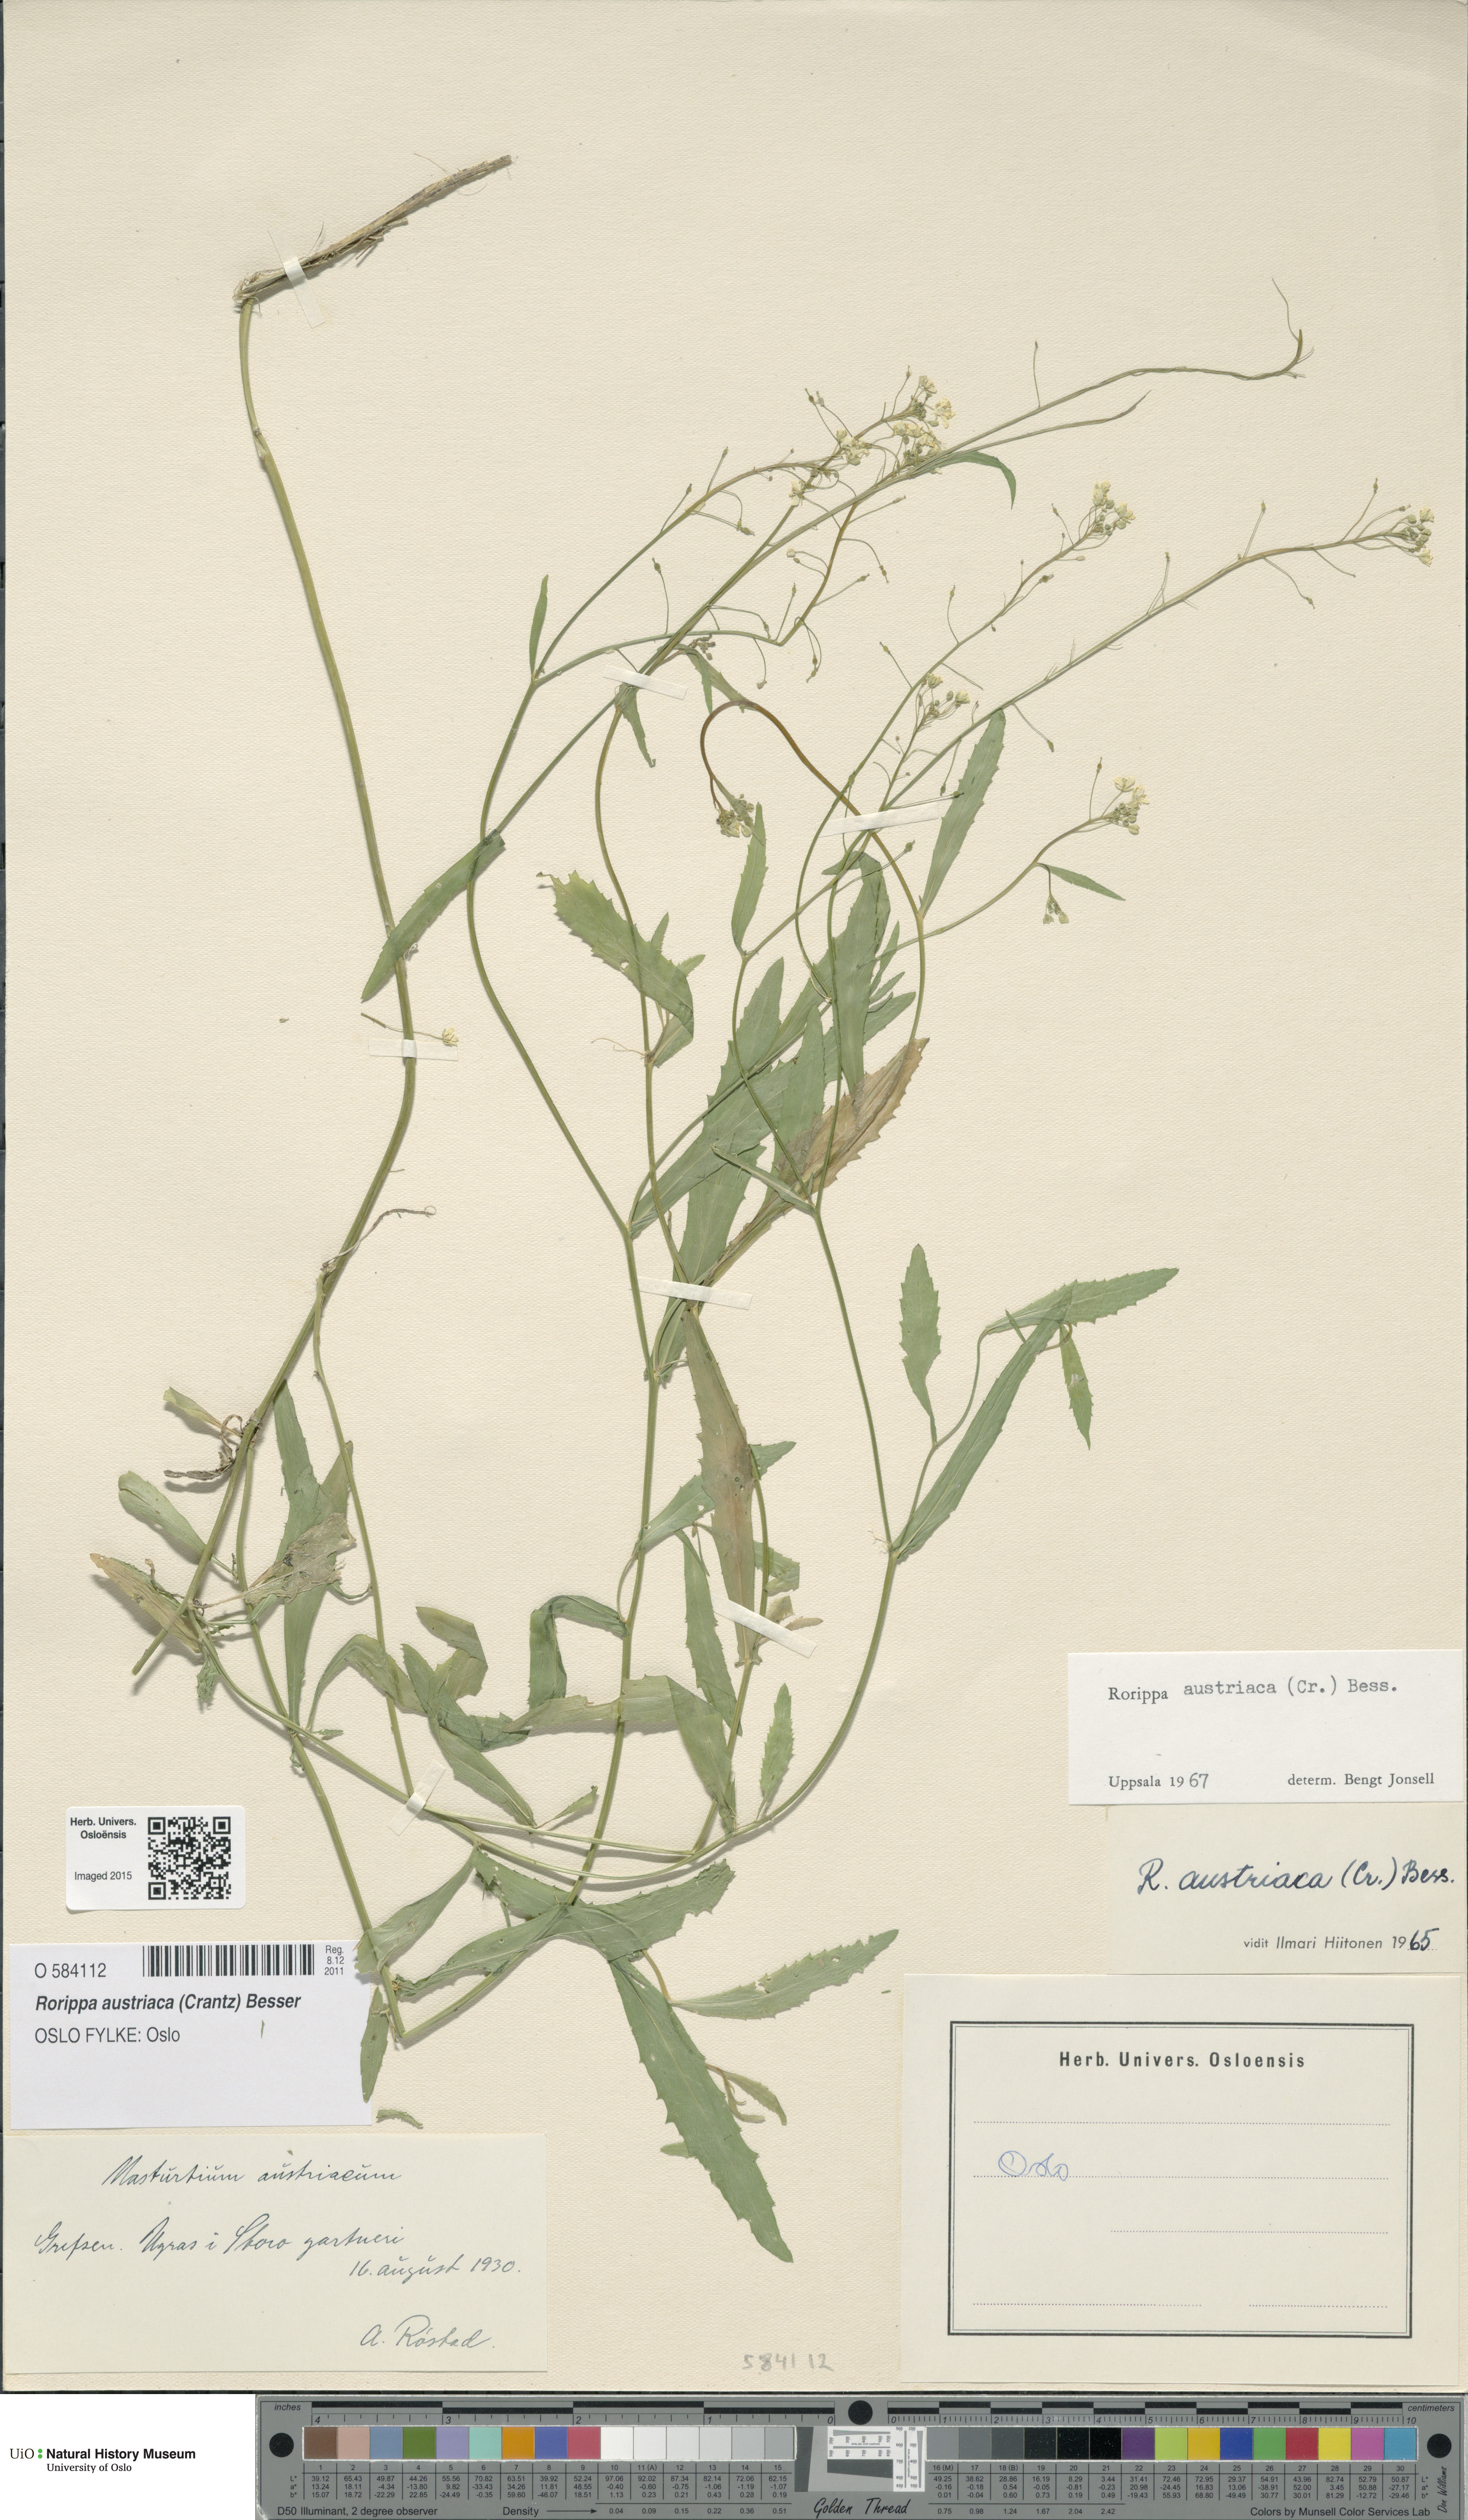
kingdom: Plantae
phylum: Tracheophyta
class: Magnoliopsida
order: Brassicales
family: Brassicaceae
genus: Rorippa
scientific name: Rorippa austriaca
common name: Austrian yellow-cress
